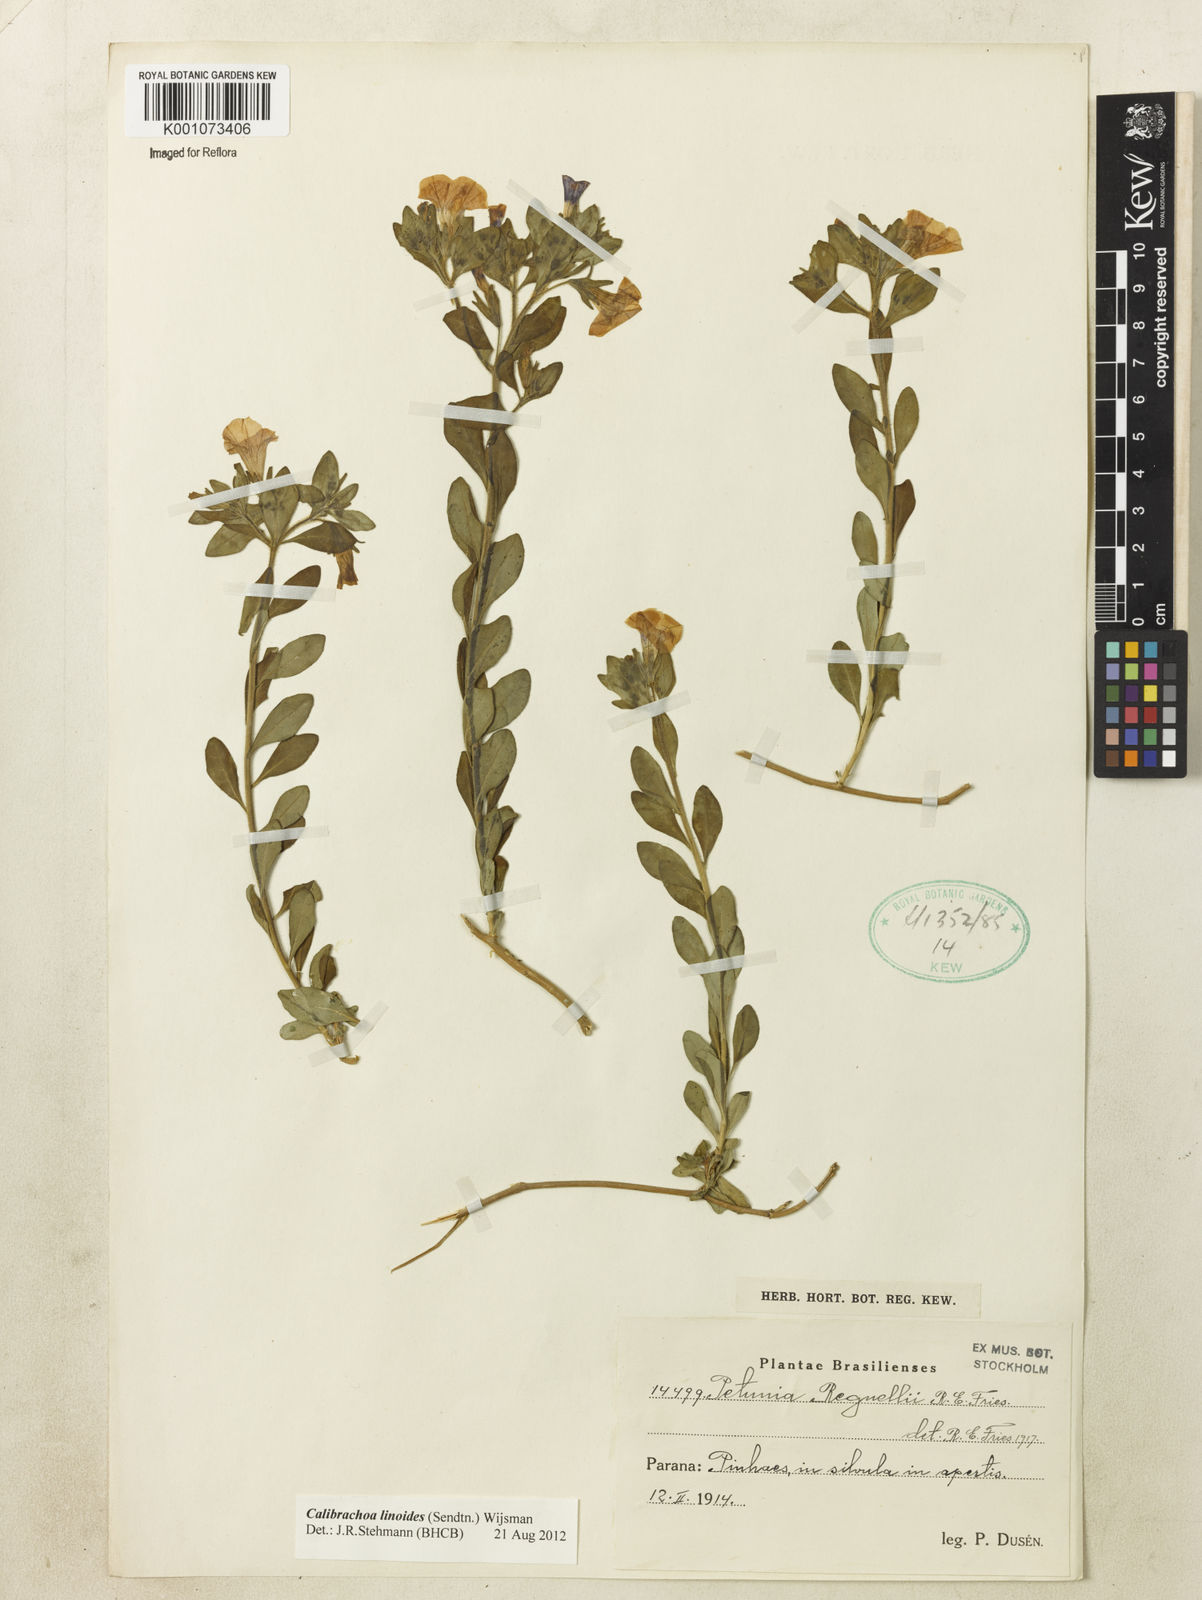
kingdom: Plantae
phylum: Tracheophyta
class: Magnoliopsida
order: Solanales
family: Solanaceae
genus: Calibrachoa
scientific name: Calibrachoa linoides
